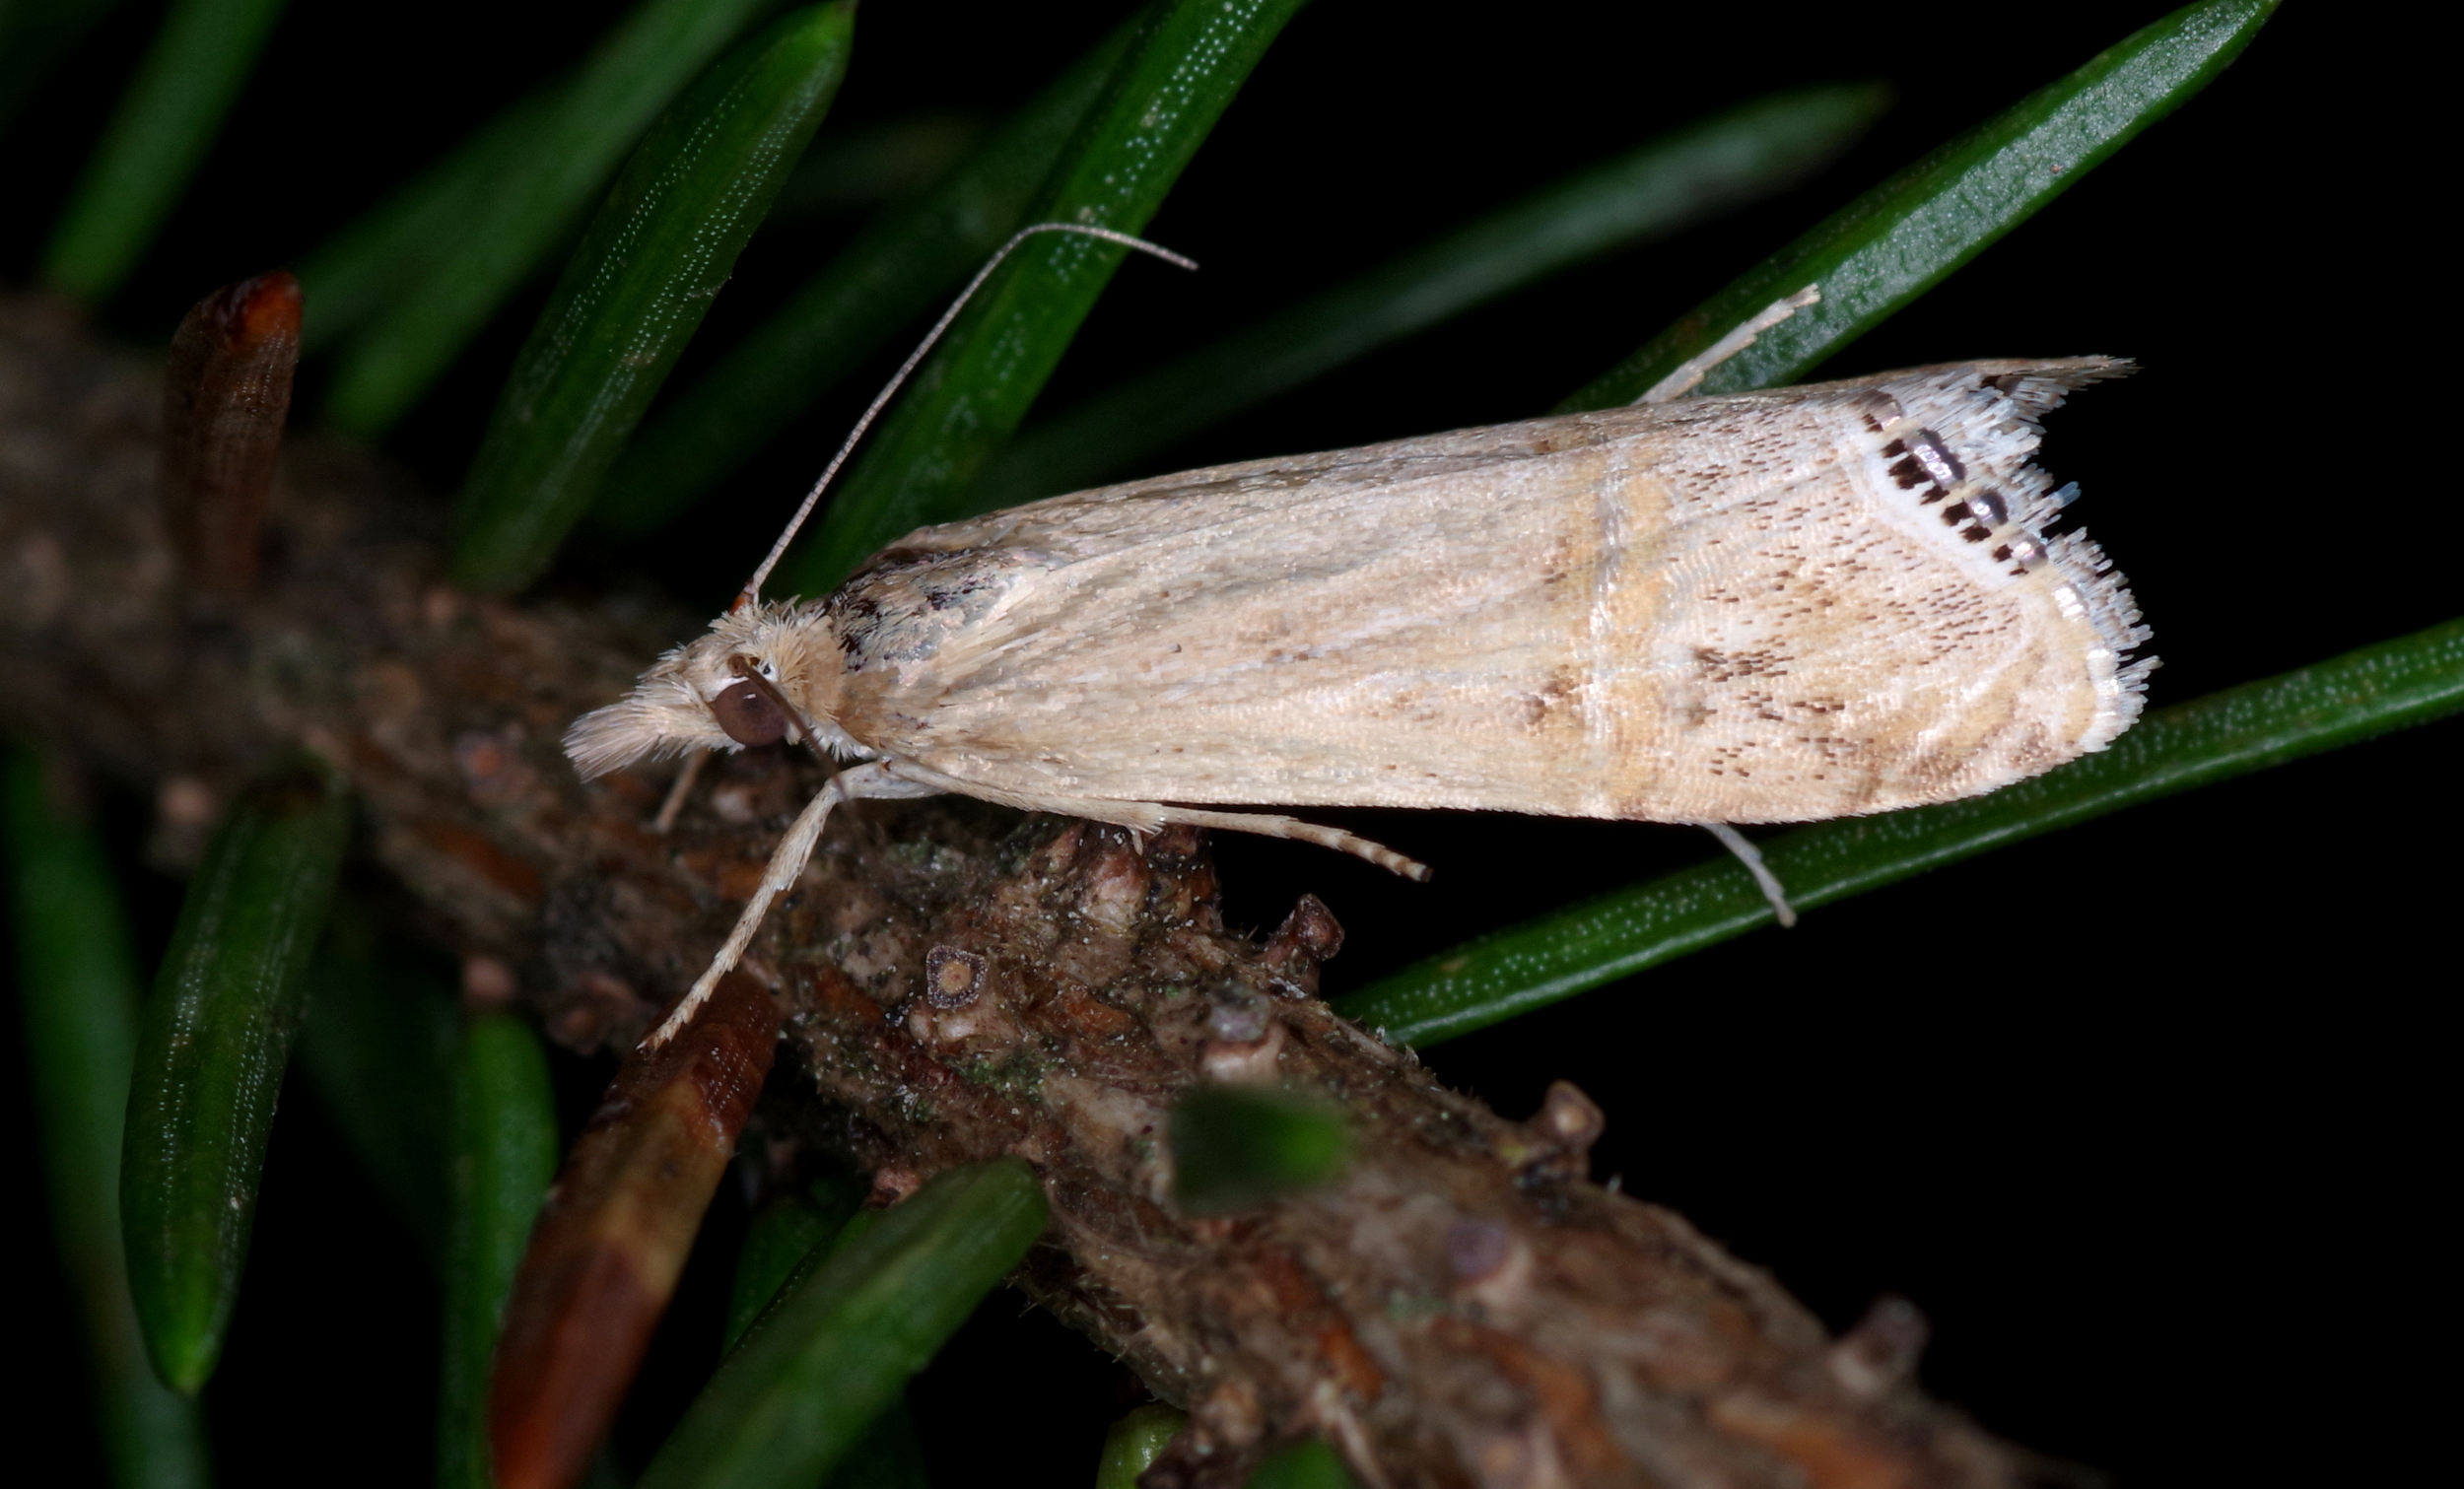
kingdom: Animalia
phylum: Arthropoda
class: Insecta
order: Lepidoptera
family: Crambidae
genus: Euchromius
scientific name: Euchromius ocellea
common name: Necklace veneer moth
